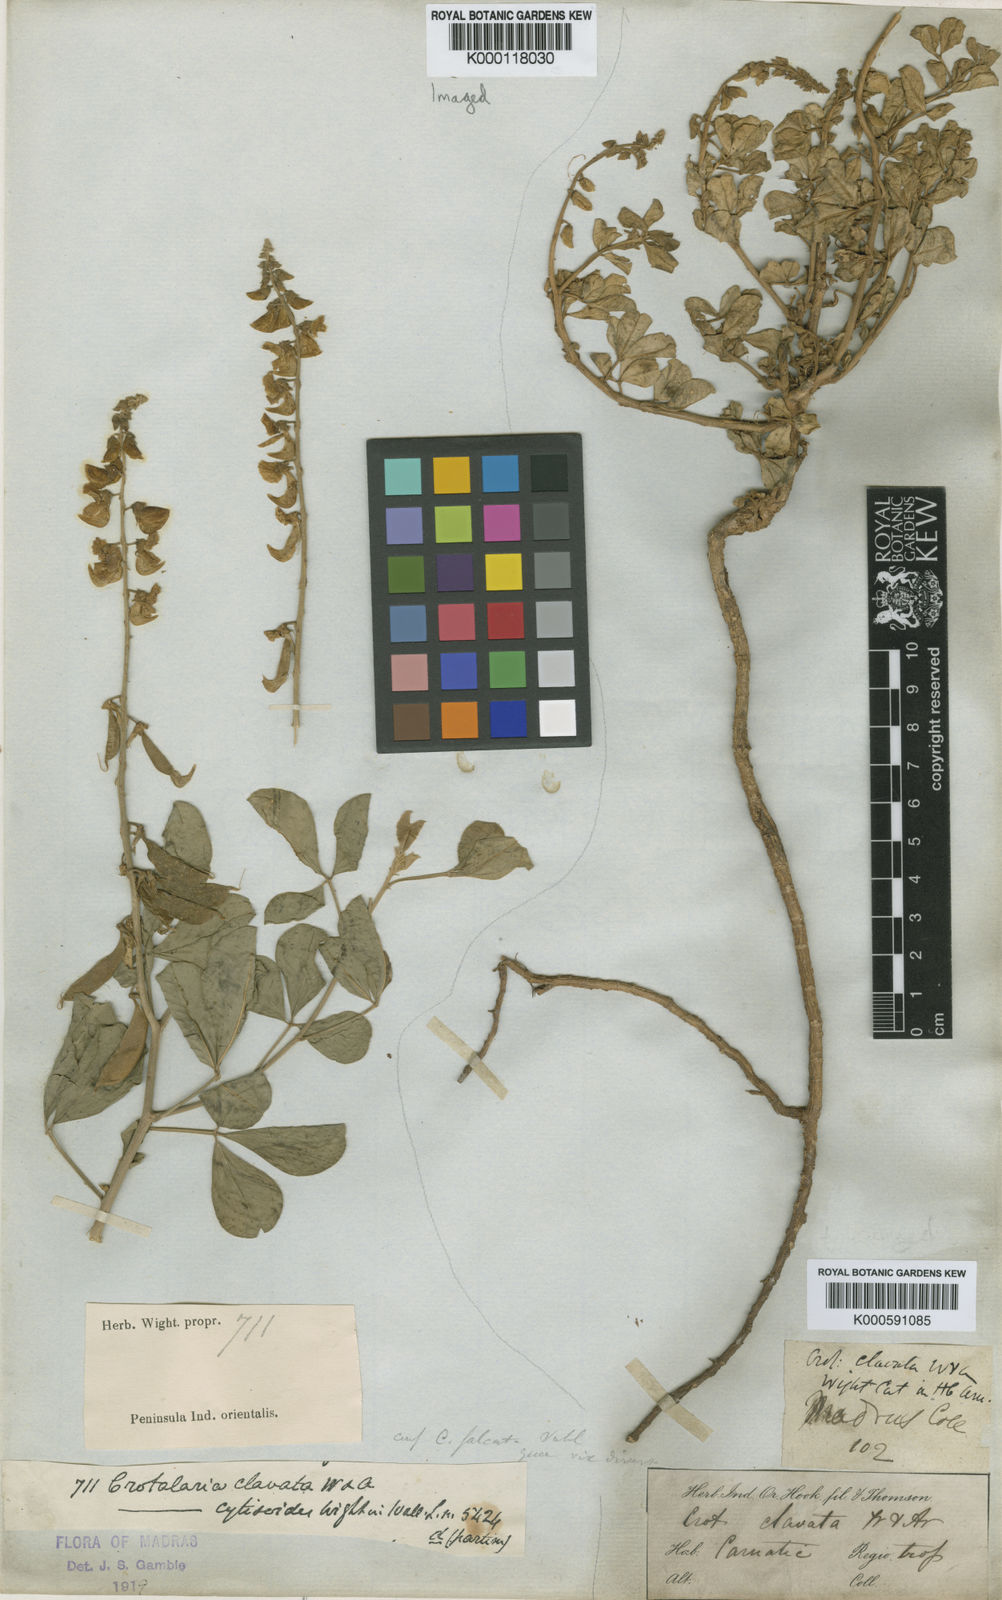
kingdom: Plantae
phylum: Tracheophyta
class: Magnoliopsida
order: Fabales
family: Fabaceae
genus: Crotalaria
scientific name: Crotalaria clavata
